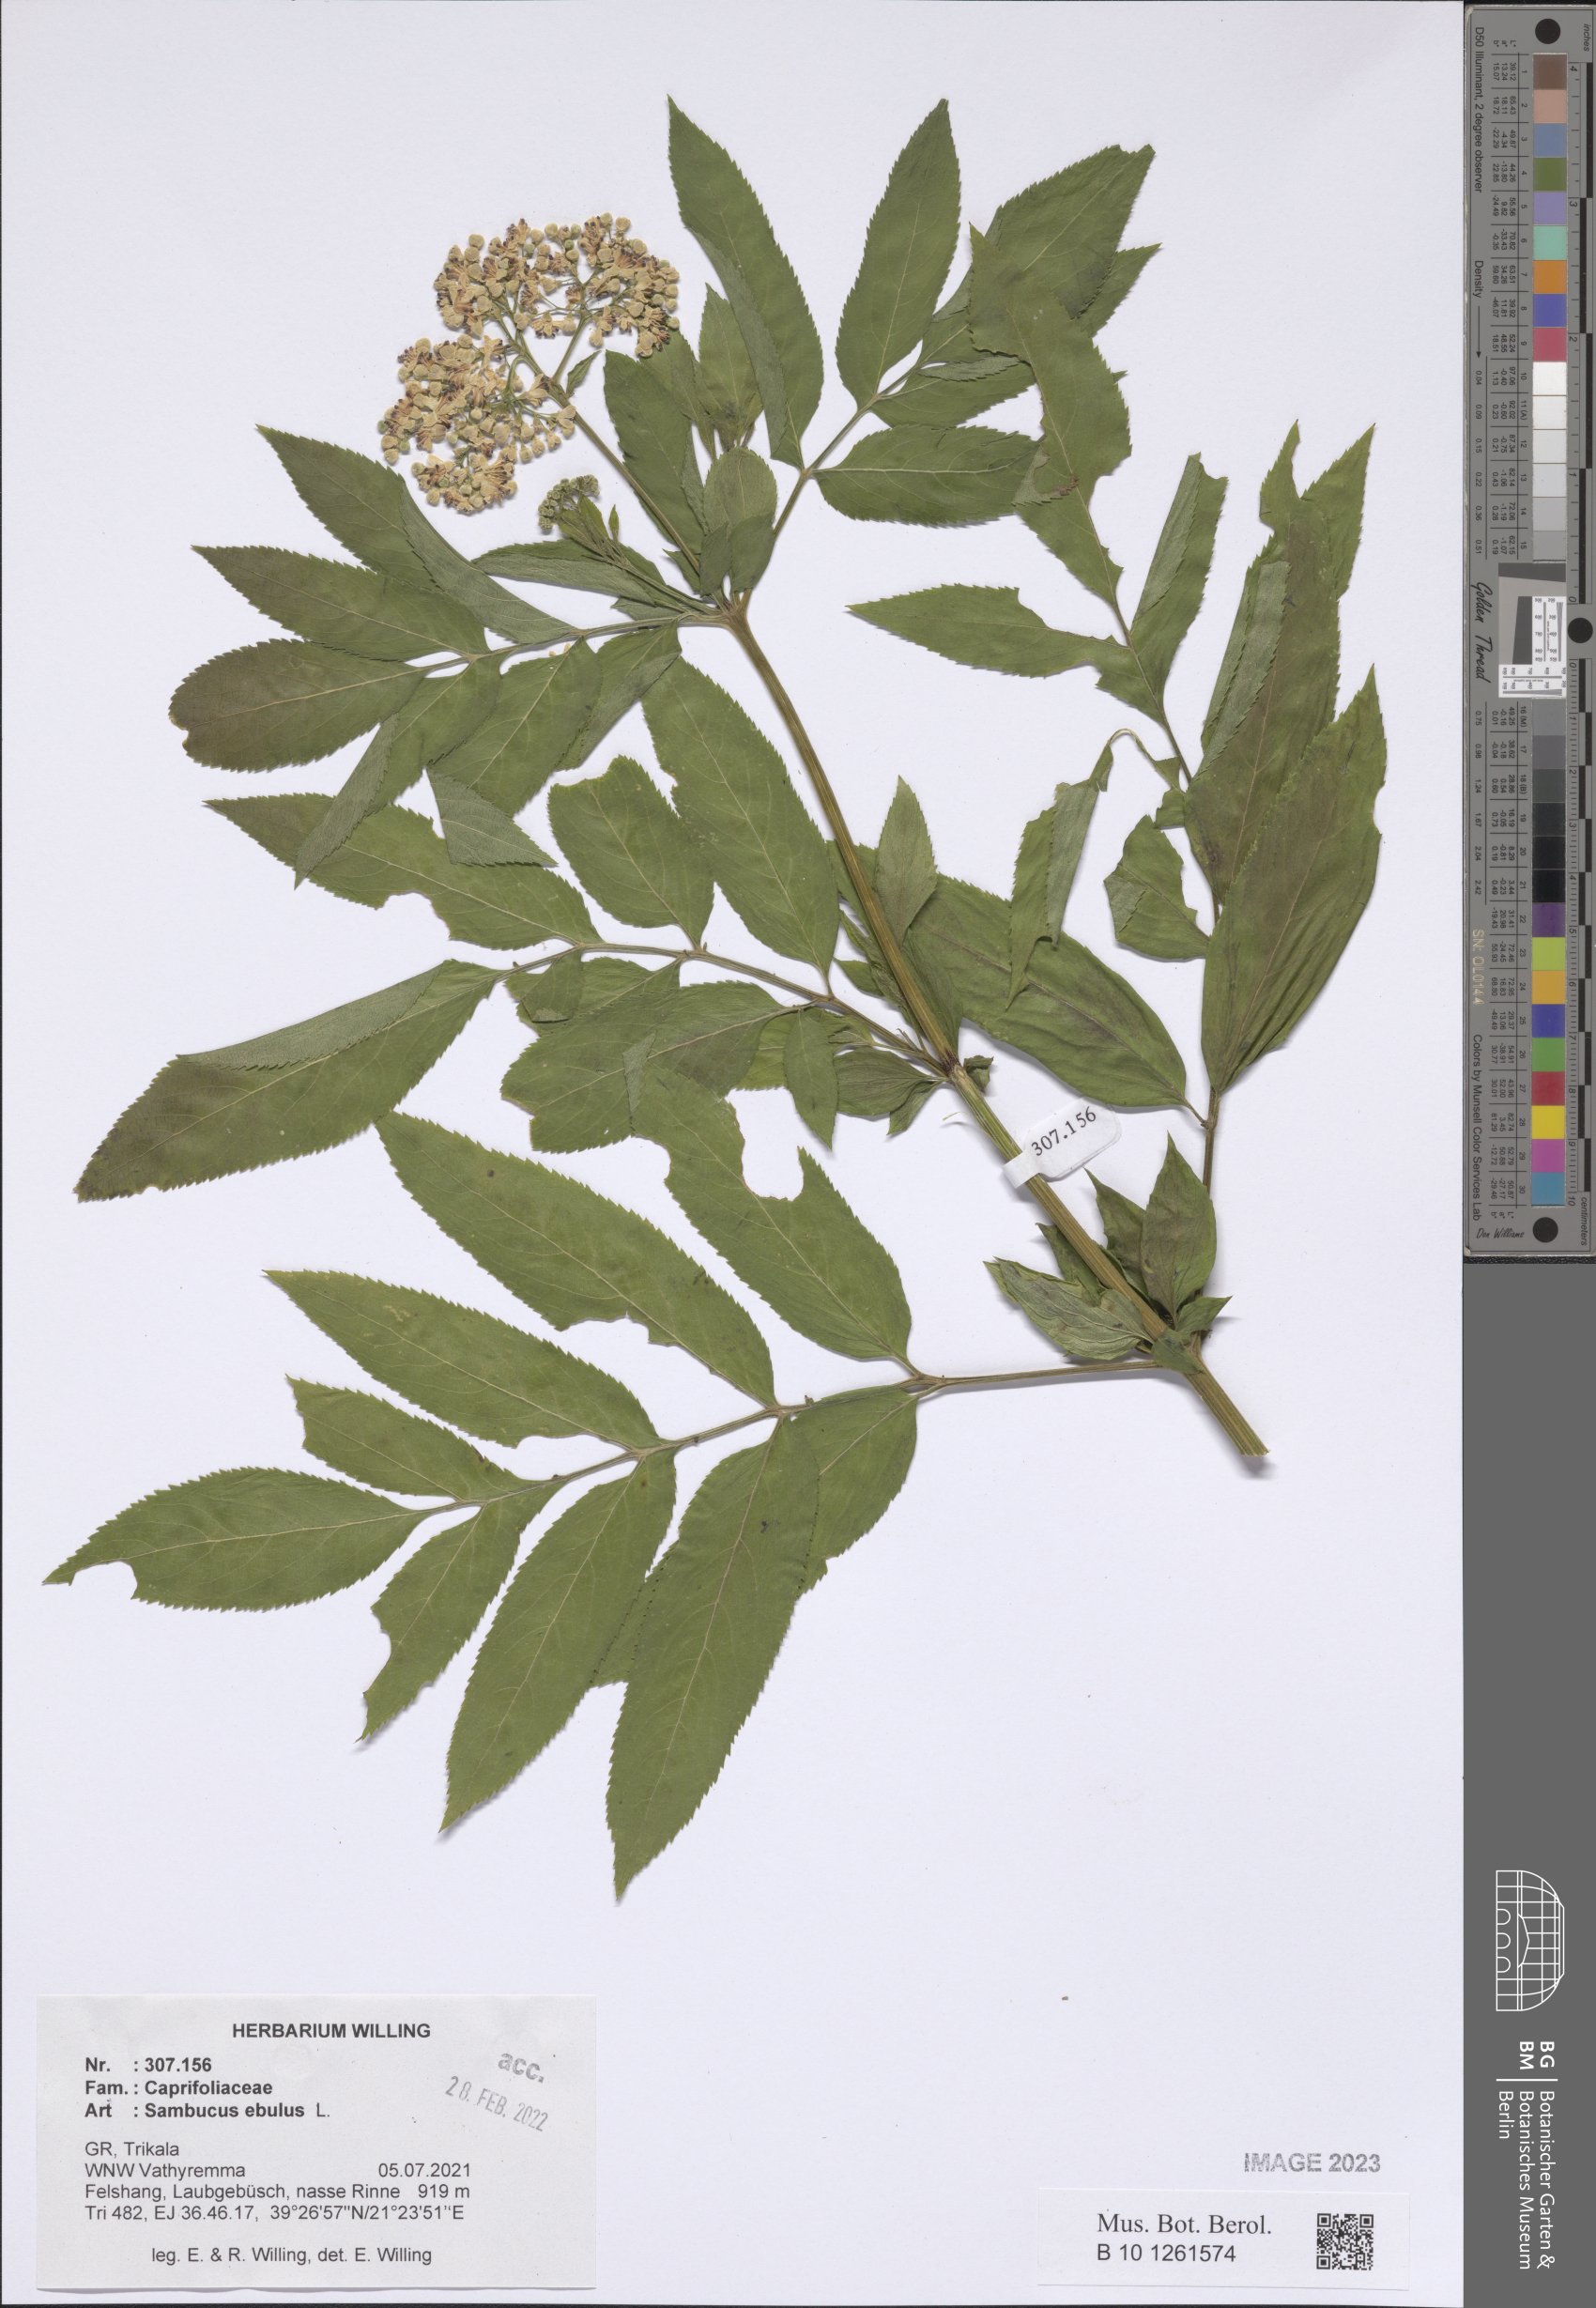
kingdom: Plantae
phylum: Tracheophyta
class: Magnoliopsida
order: Dipsacales
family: Viburnaceae
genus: Sambucus
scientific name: Sambucus ebulus
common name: Dwarf elder
